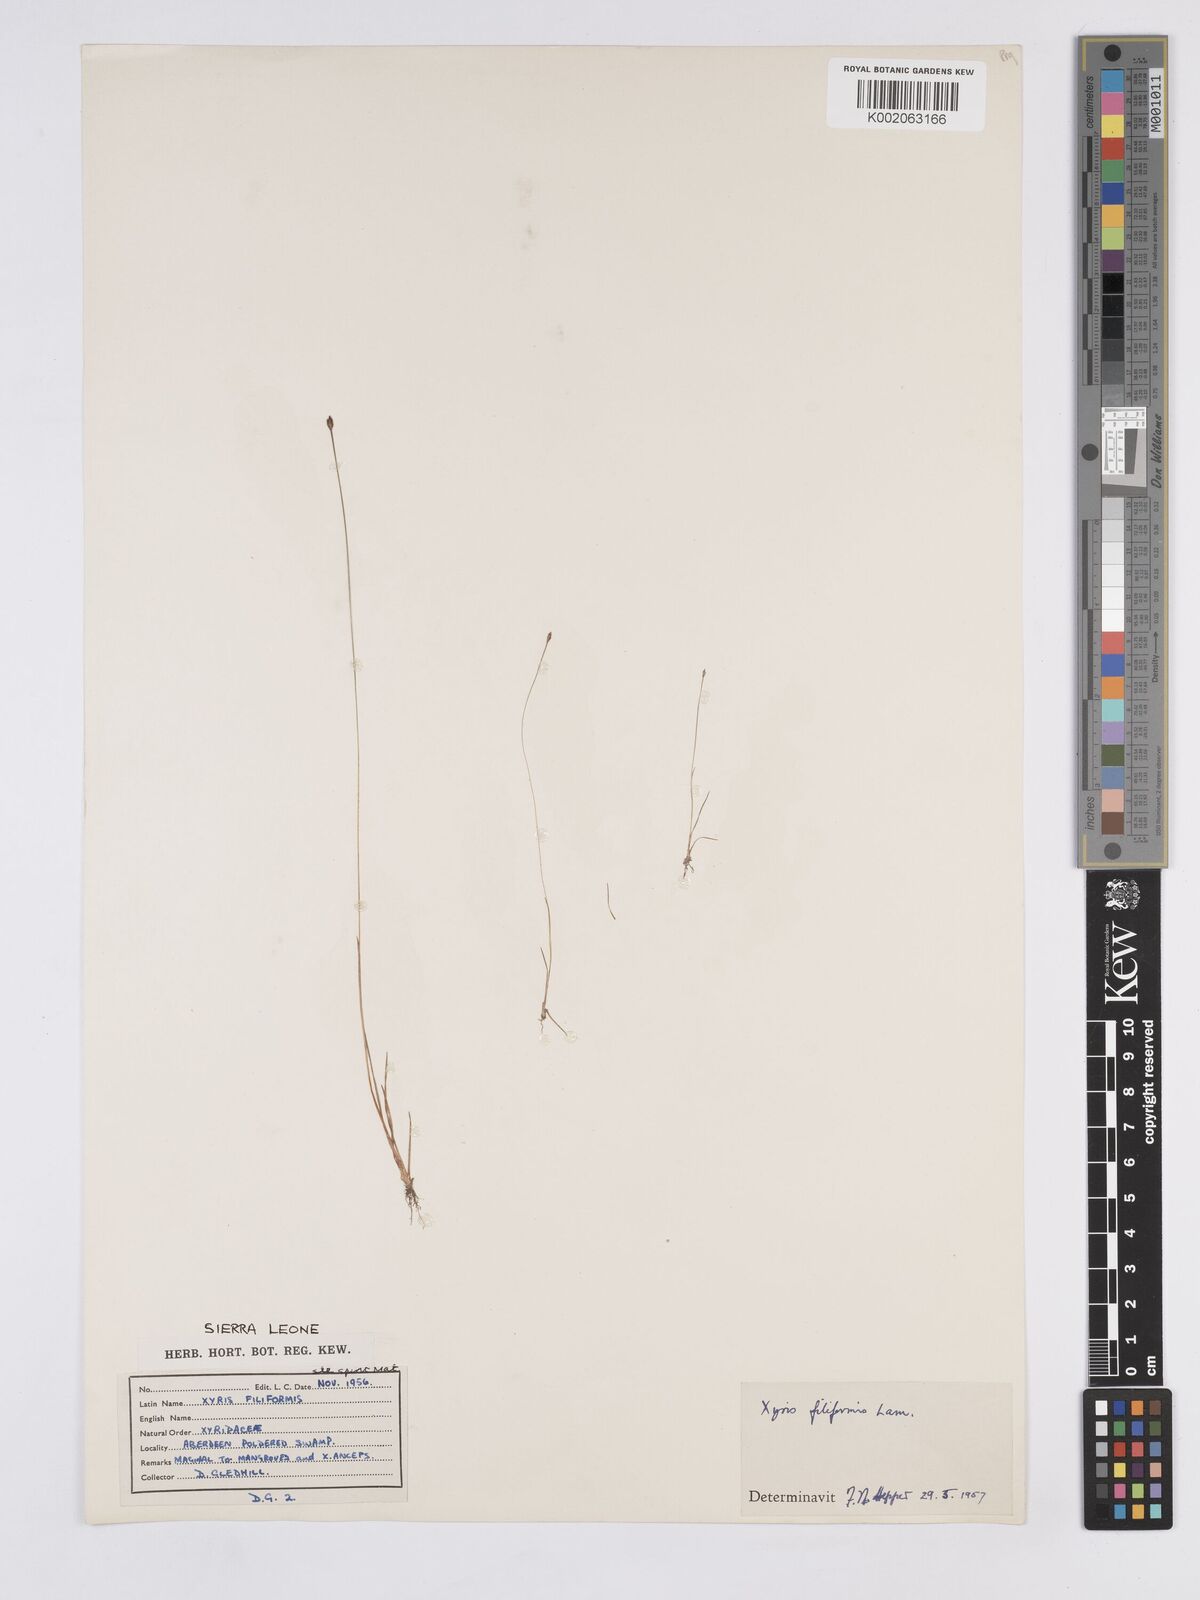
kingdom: Plantae
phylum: Tracheophyta
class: Liliopsida
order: Poales
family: Xyridaceae
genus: Xyris
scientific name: Xyris filiformis
